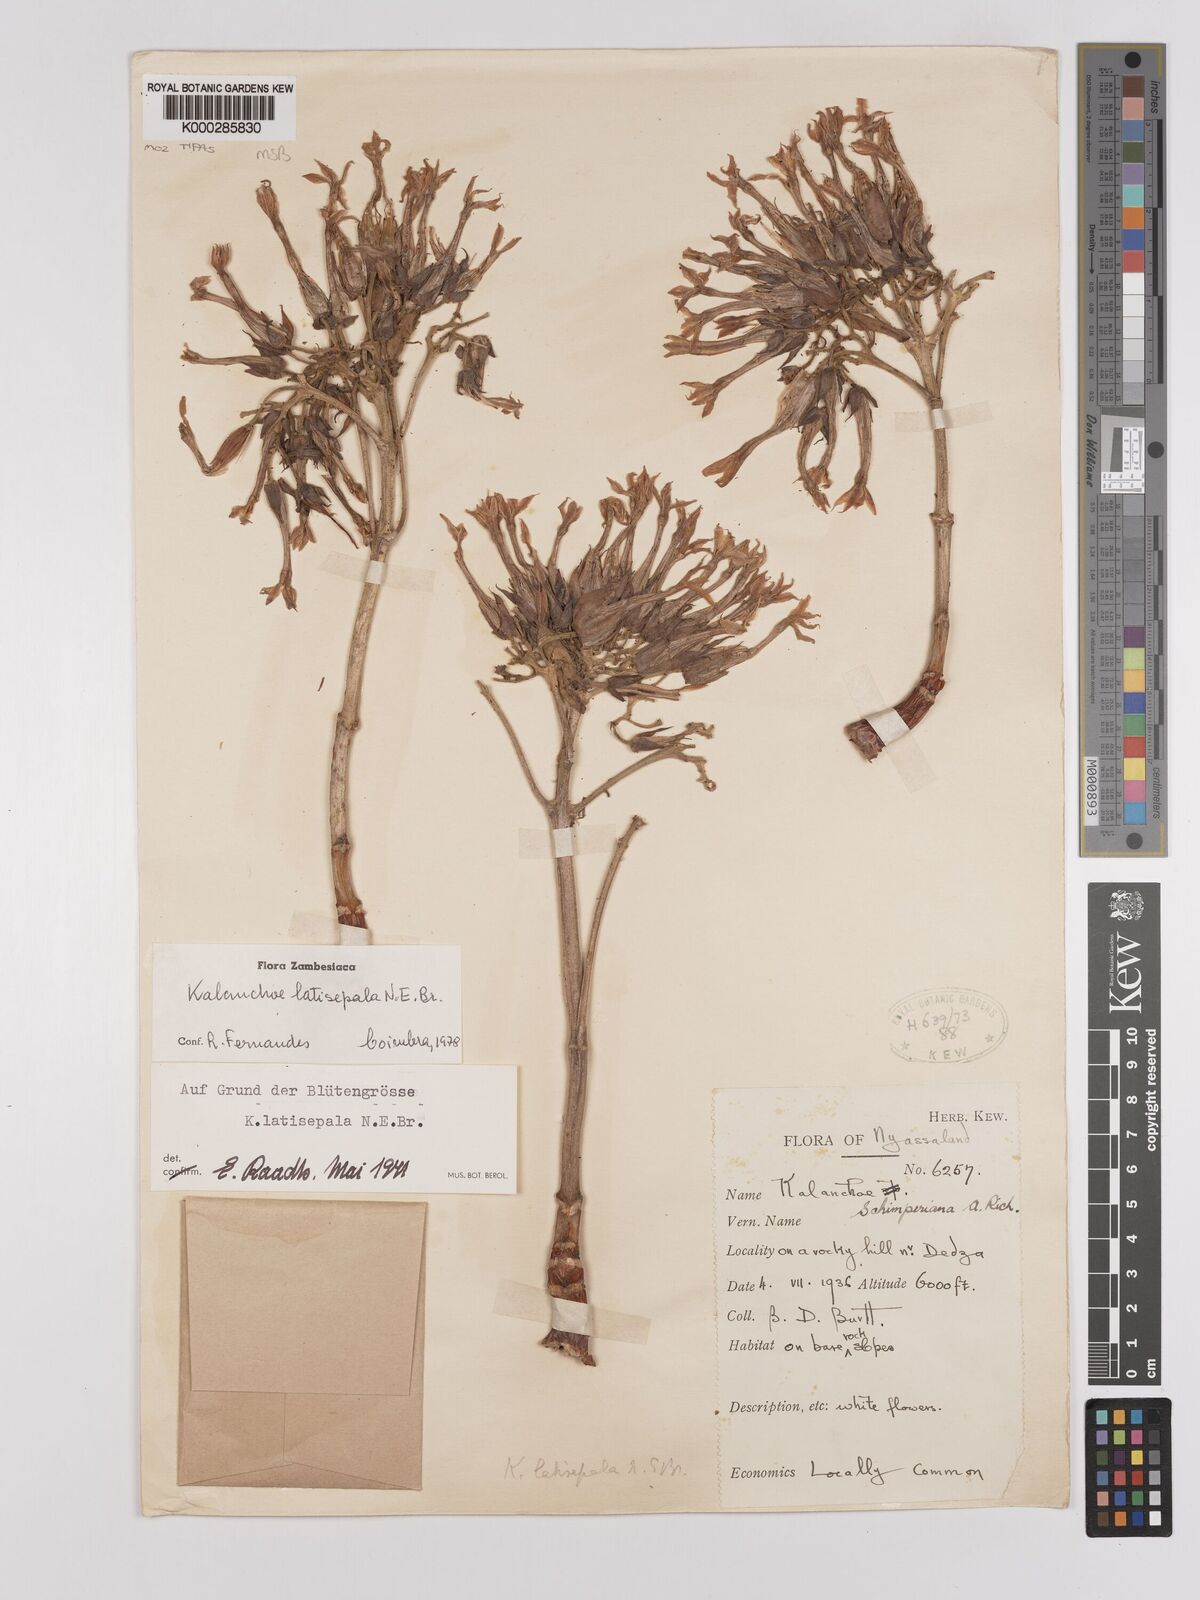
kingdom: Plantae
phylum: Tracheophyta
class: Magnoliopsida
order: Saxifragales
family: Crassulaceae
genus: Kalanchoe
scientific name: Kalanchoe latisepala
